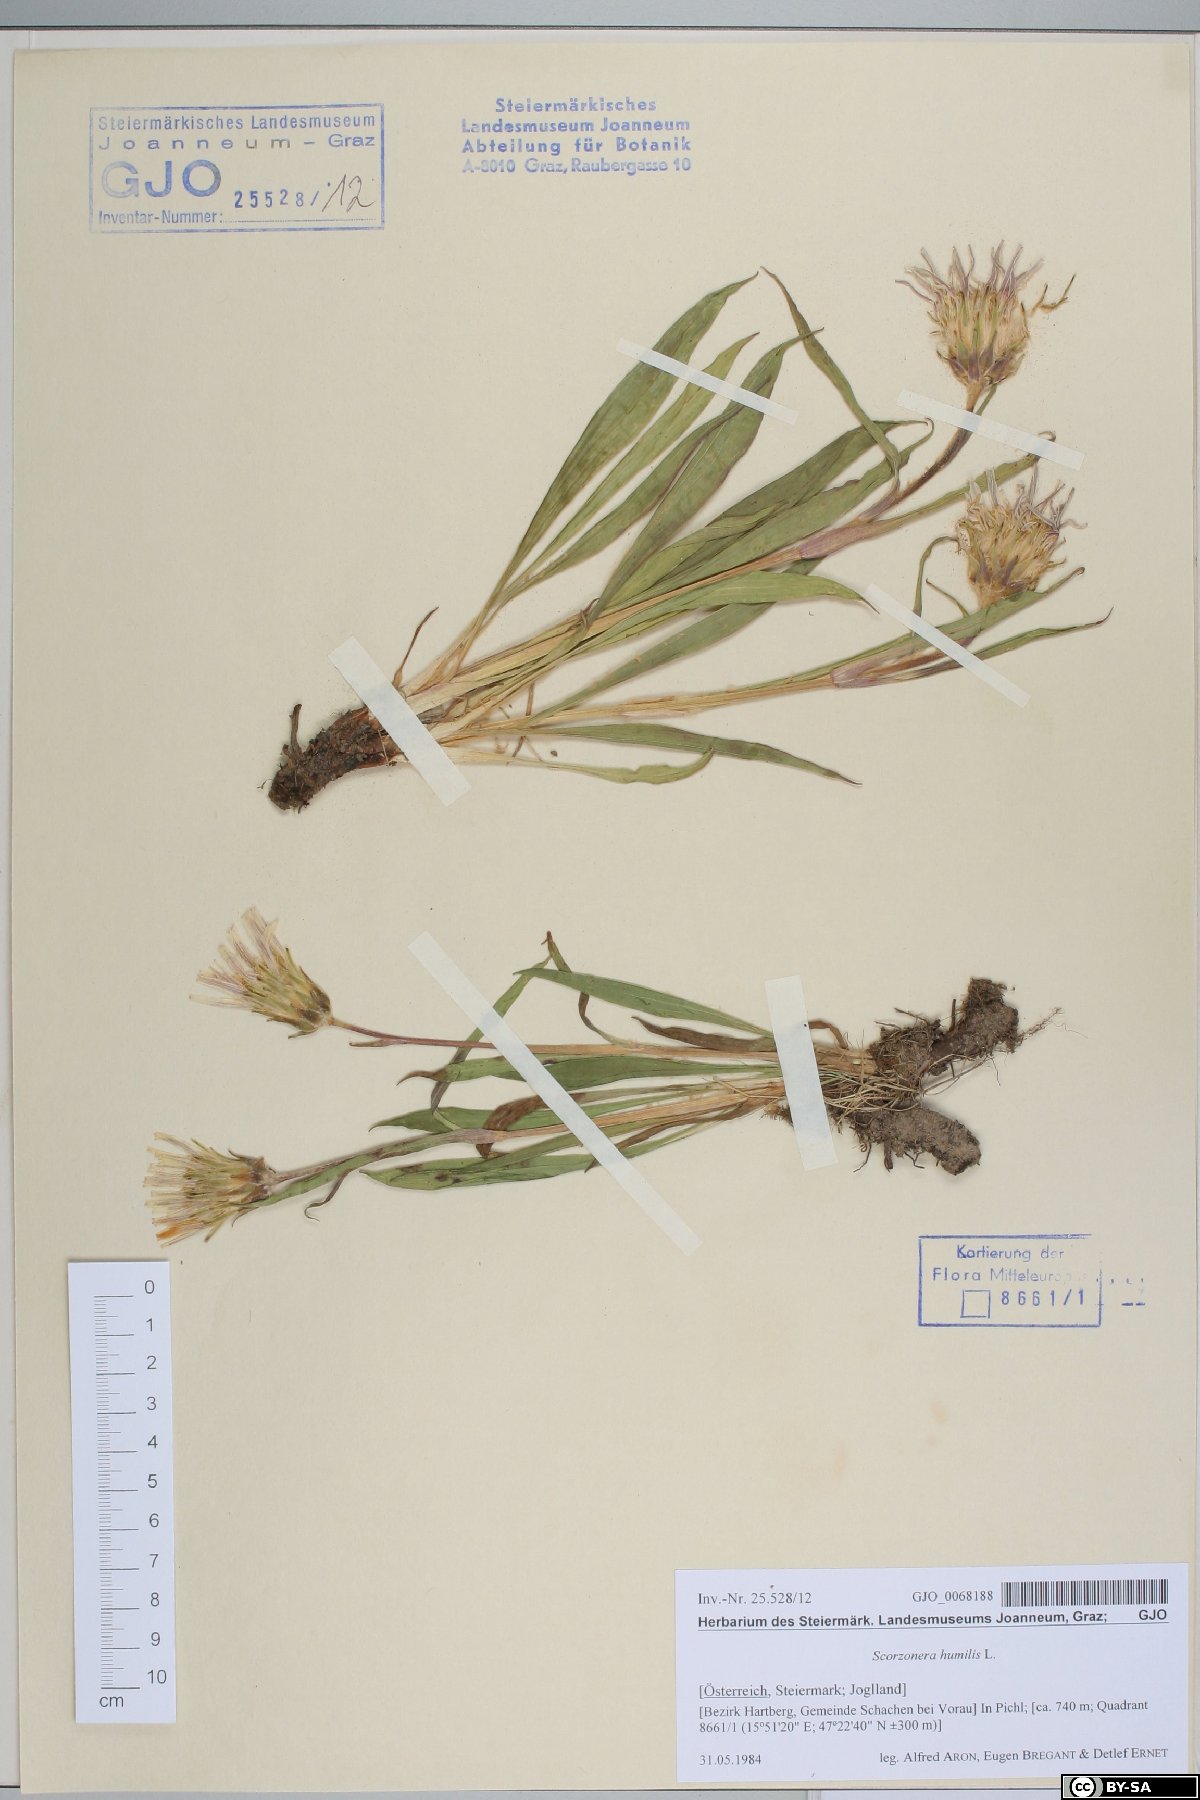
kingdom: Plantae
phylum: Tracheophyta
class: Magnoliopsida
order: Asterales
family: Asteraceae
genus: Scorzonera
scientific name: Scorzonera humilis
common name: Viper's-grass
